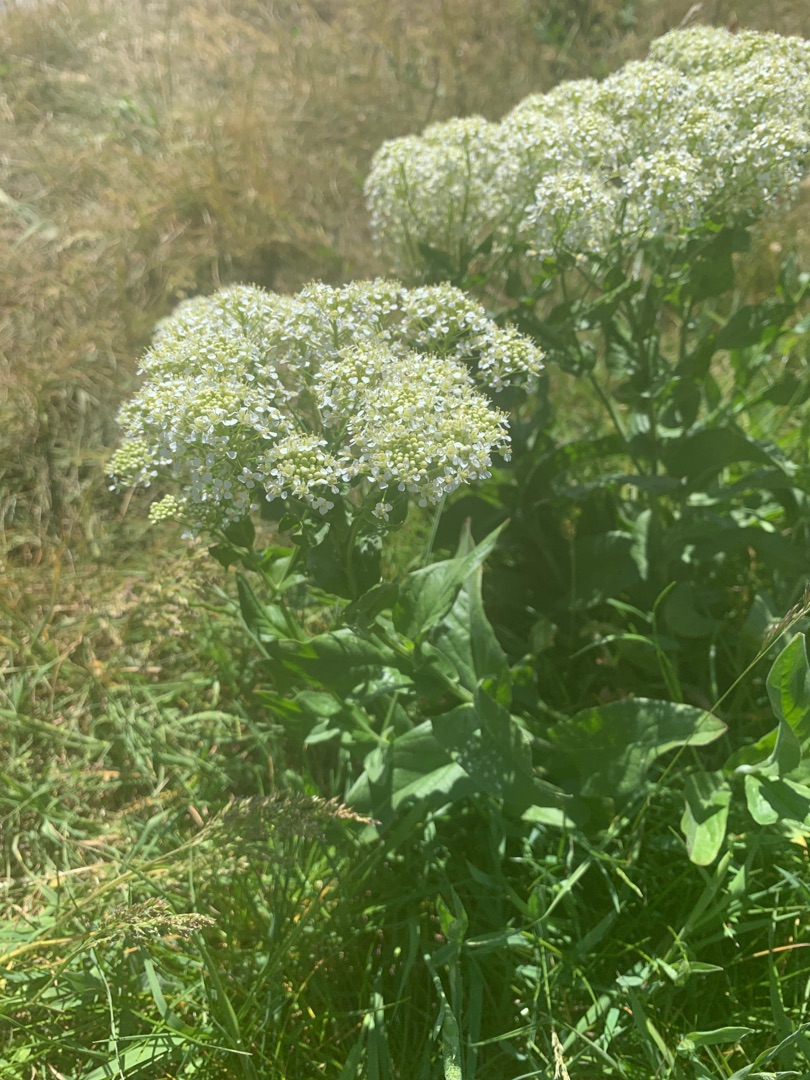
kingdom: Plantae
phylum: Tracheophyta
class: Magnoliopsida
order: Brassicales
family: Brassicaceae
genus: Lepidium
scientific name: Lepidium draba
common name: Hjerte-karse
